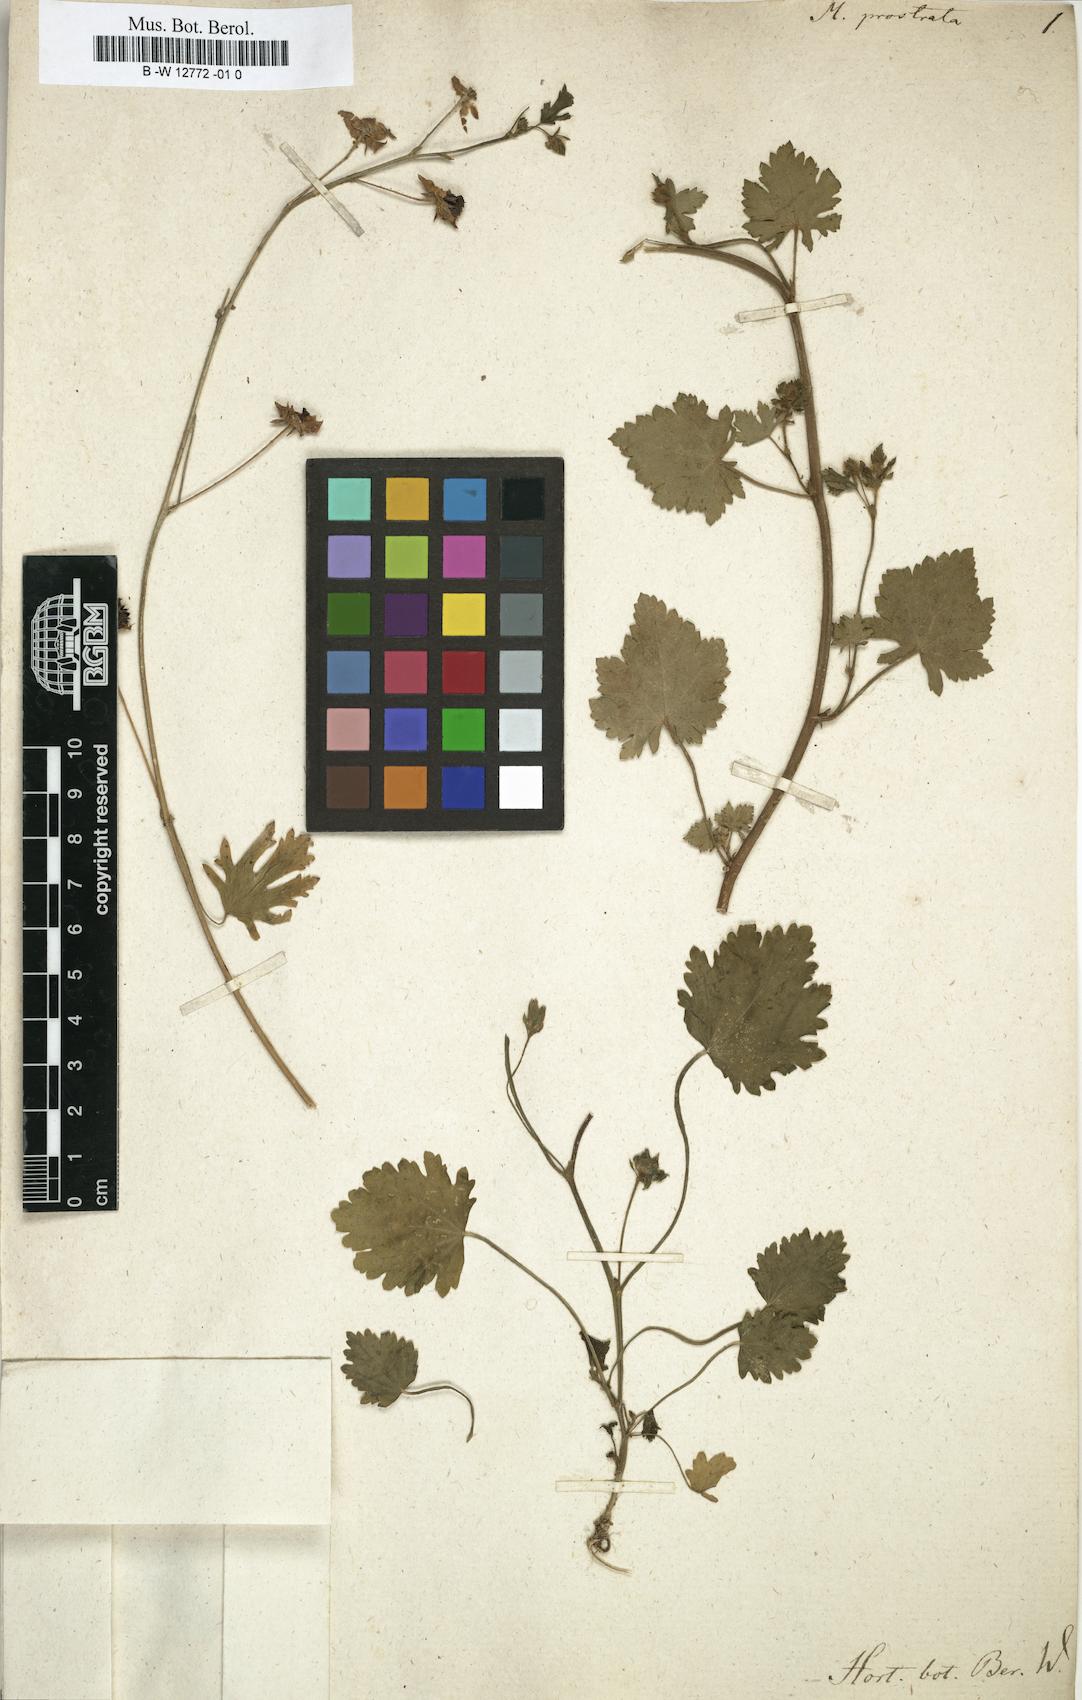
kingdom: Plantae
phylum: Tracheophyta
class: Magnoliopsida
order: Malvales
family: Malvaceae
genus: Modiola
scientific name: Modiola caroliniana
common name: Carolina bristlemallow
